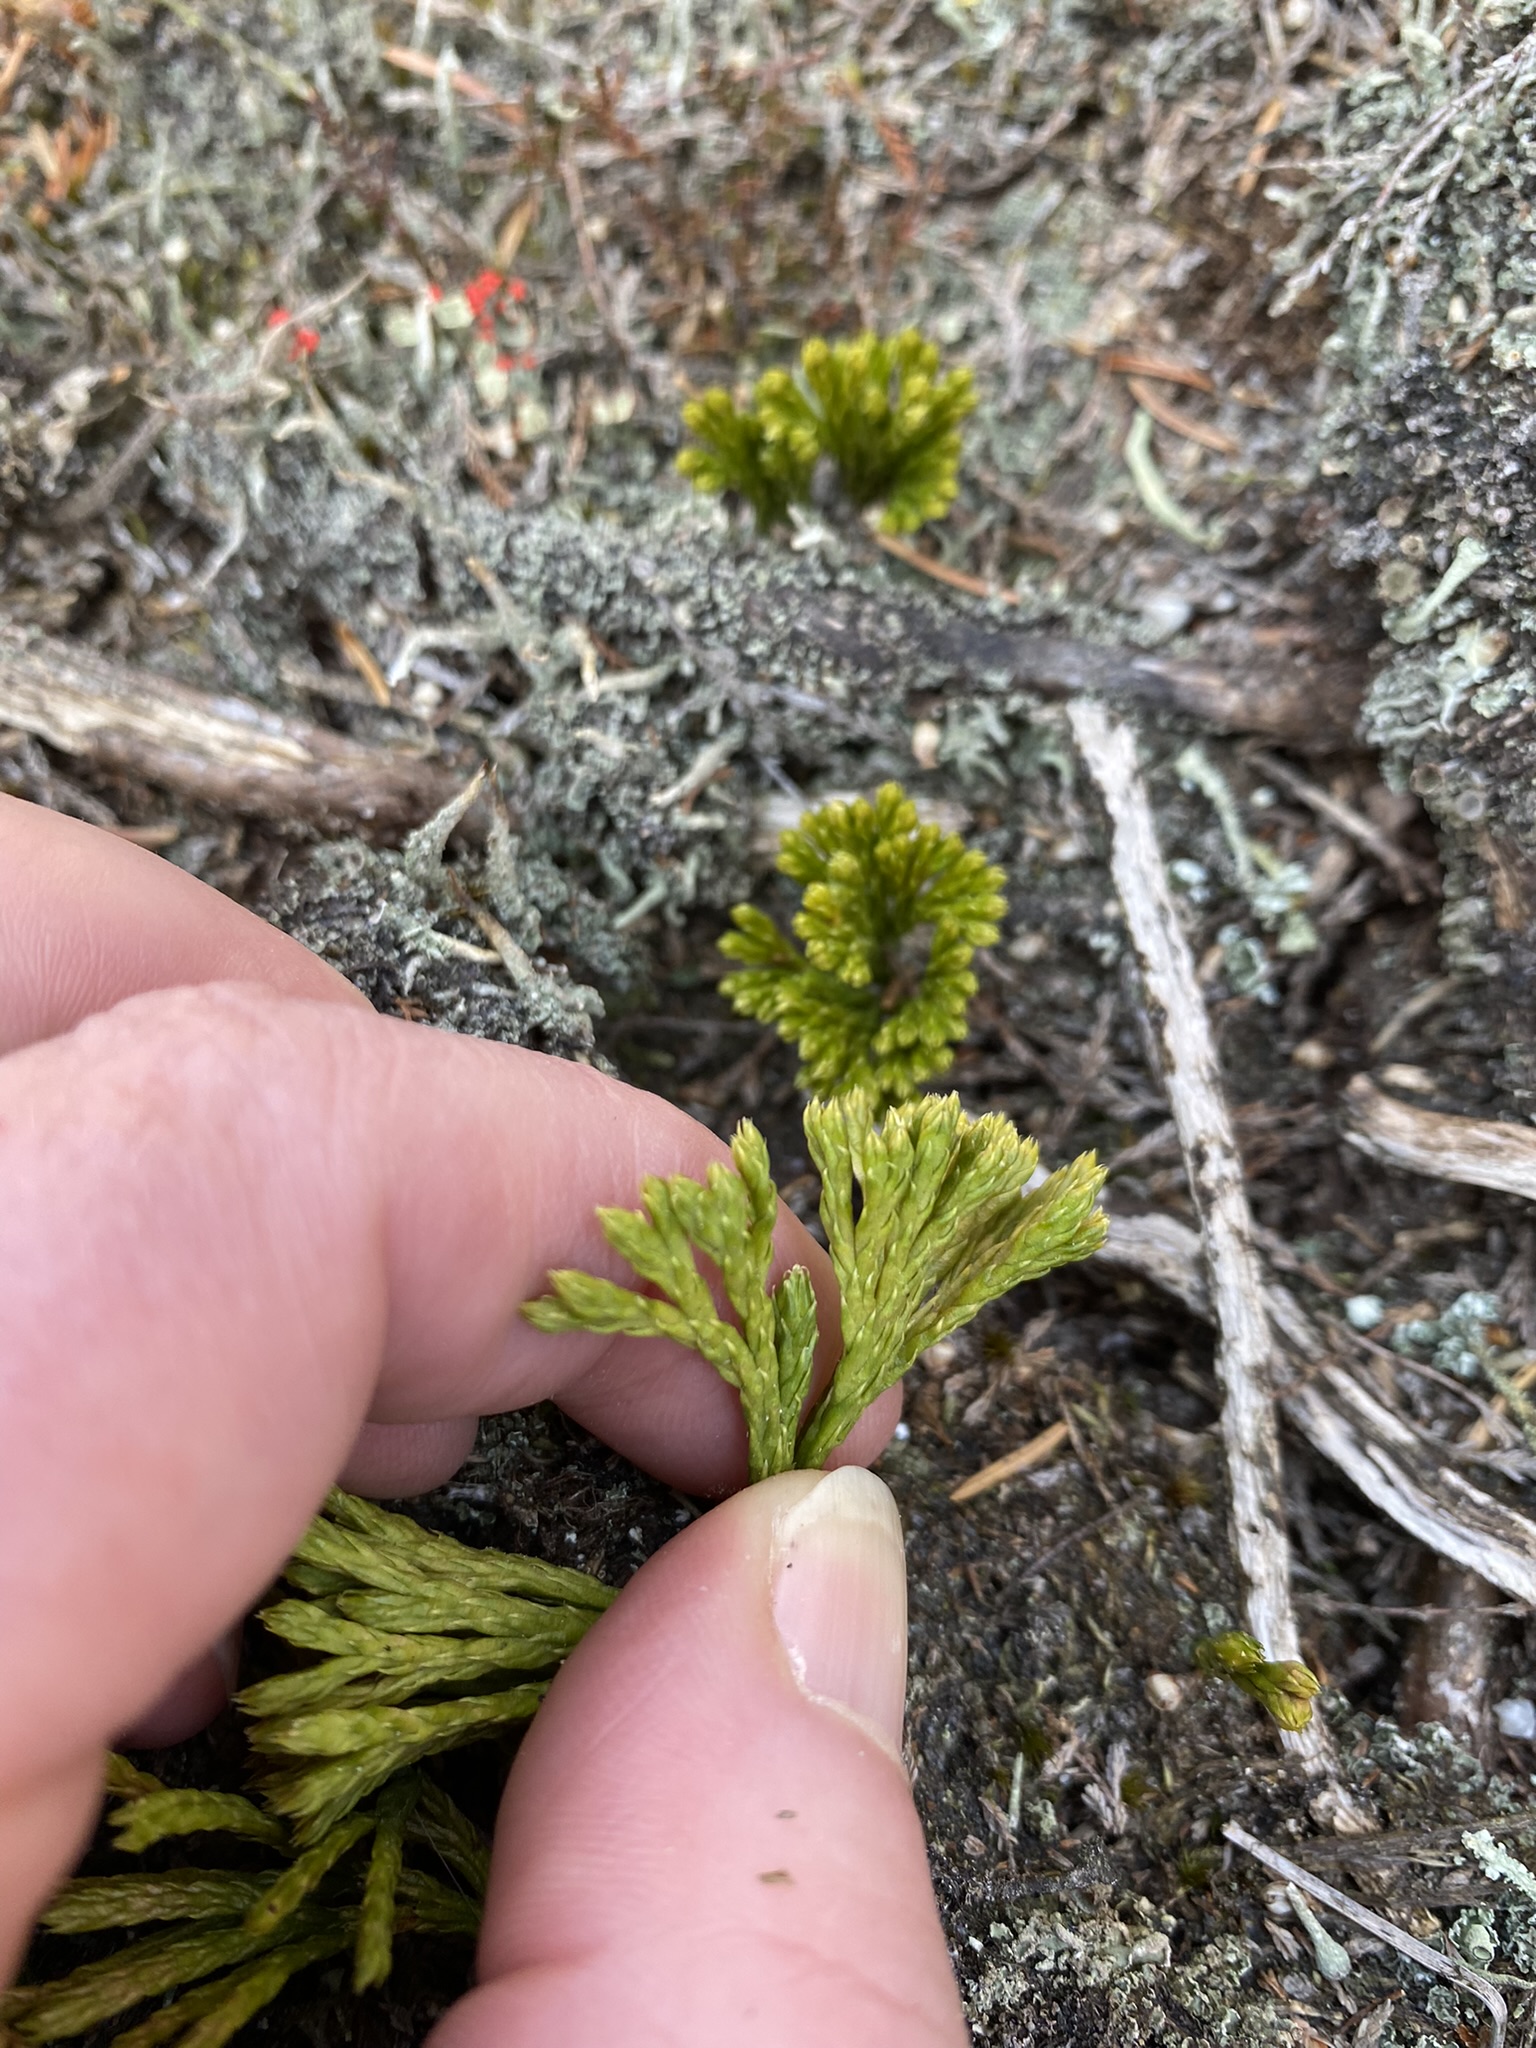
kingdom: Plantae
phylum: Tracheophyta
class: Lycopodiopsida
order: Lycopodiales
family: Lycopodiaceae
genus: Diphasiastrum
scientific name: Diphasiastrum tristachyum
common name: Cypres-ulvefod
